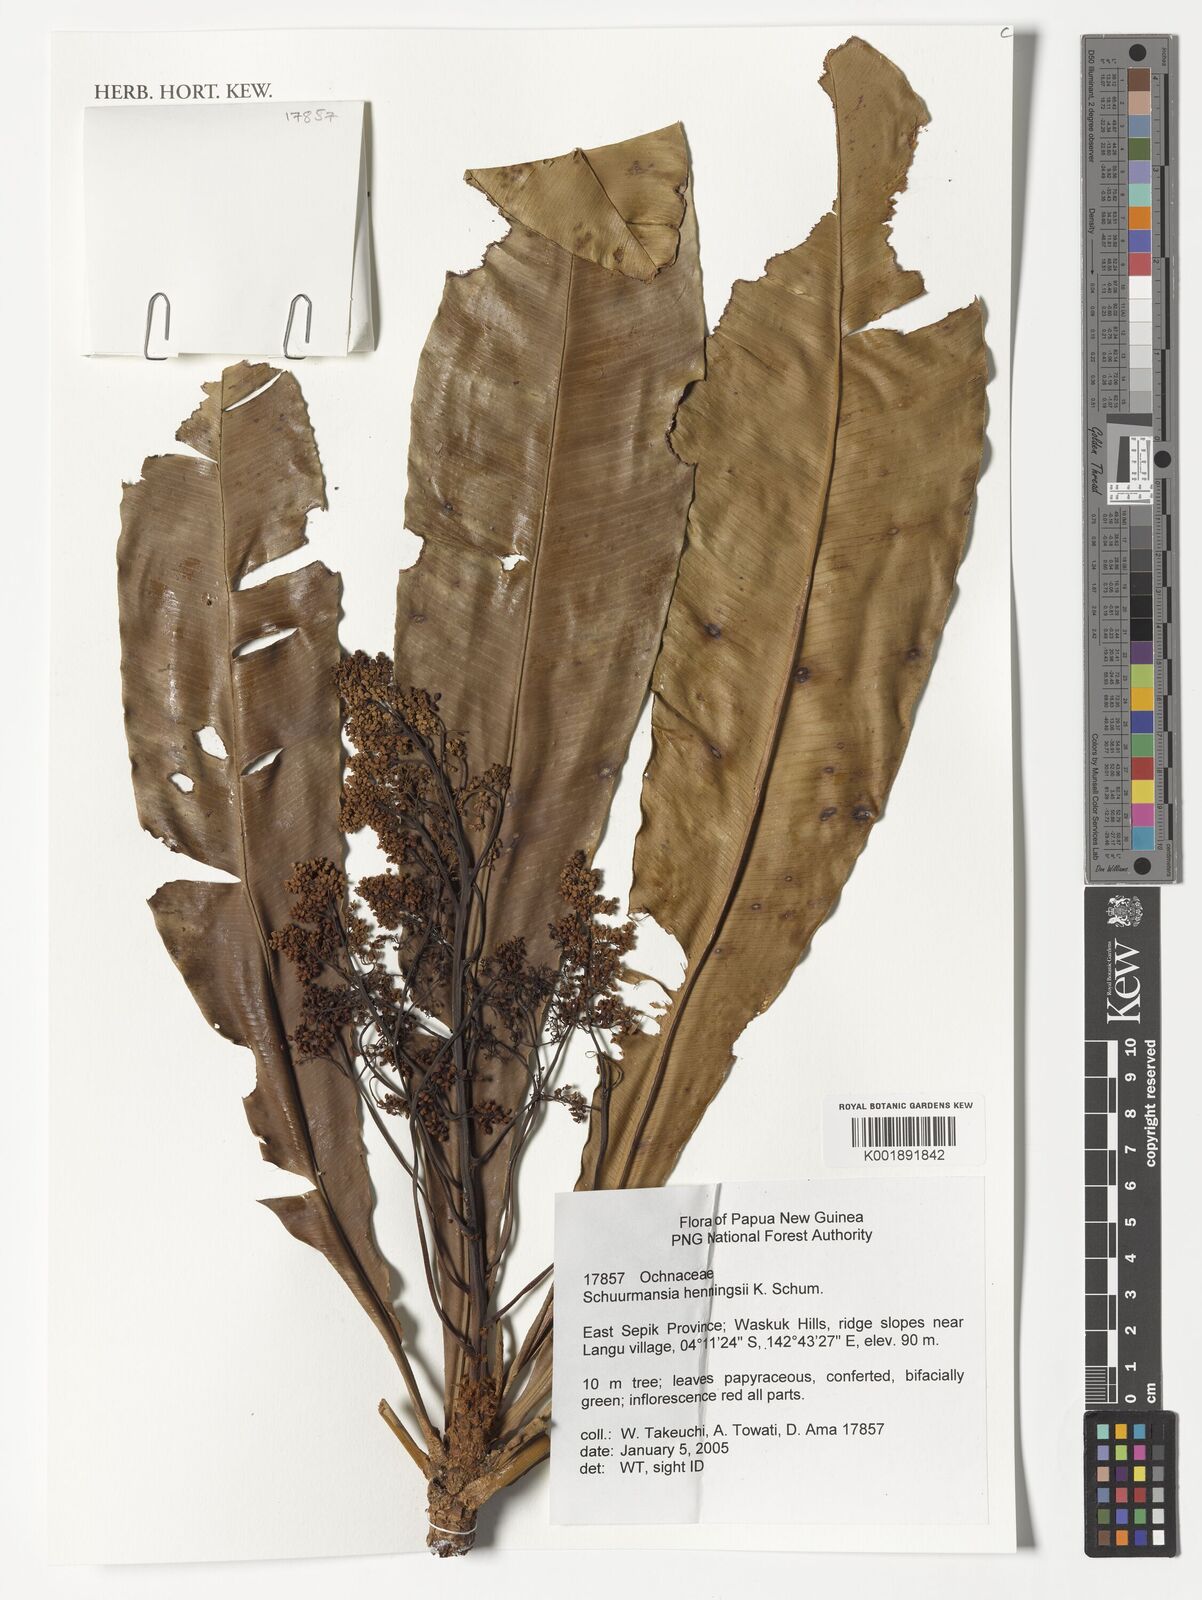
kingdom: Plantae
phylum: Tracheophyta
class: Magnoliopsida
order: Malpighiales
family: Ochnaceae
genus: Schuurmansia
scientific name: Schuurmansia henningsii
